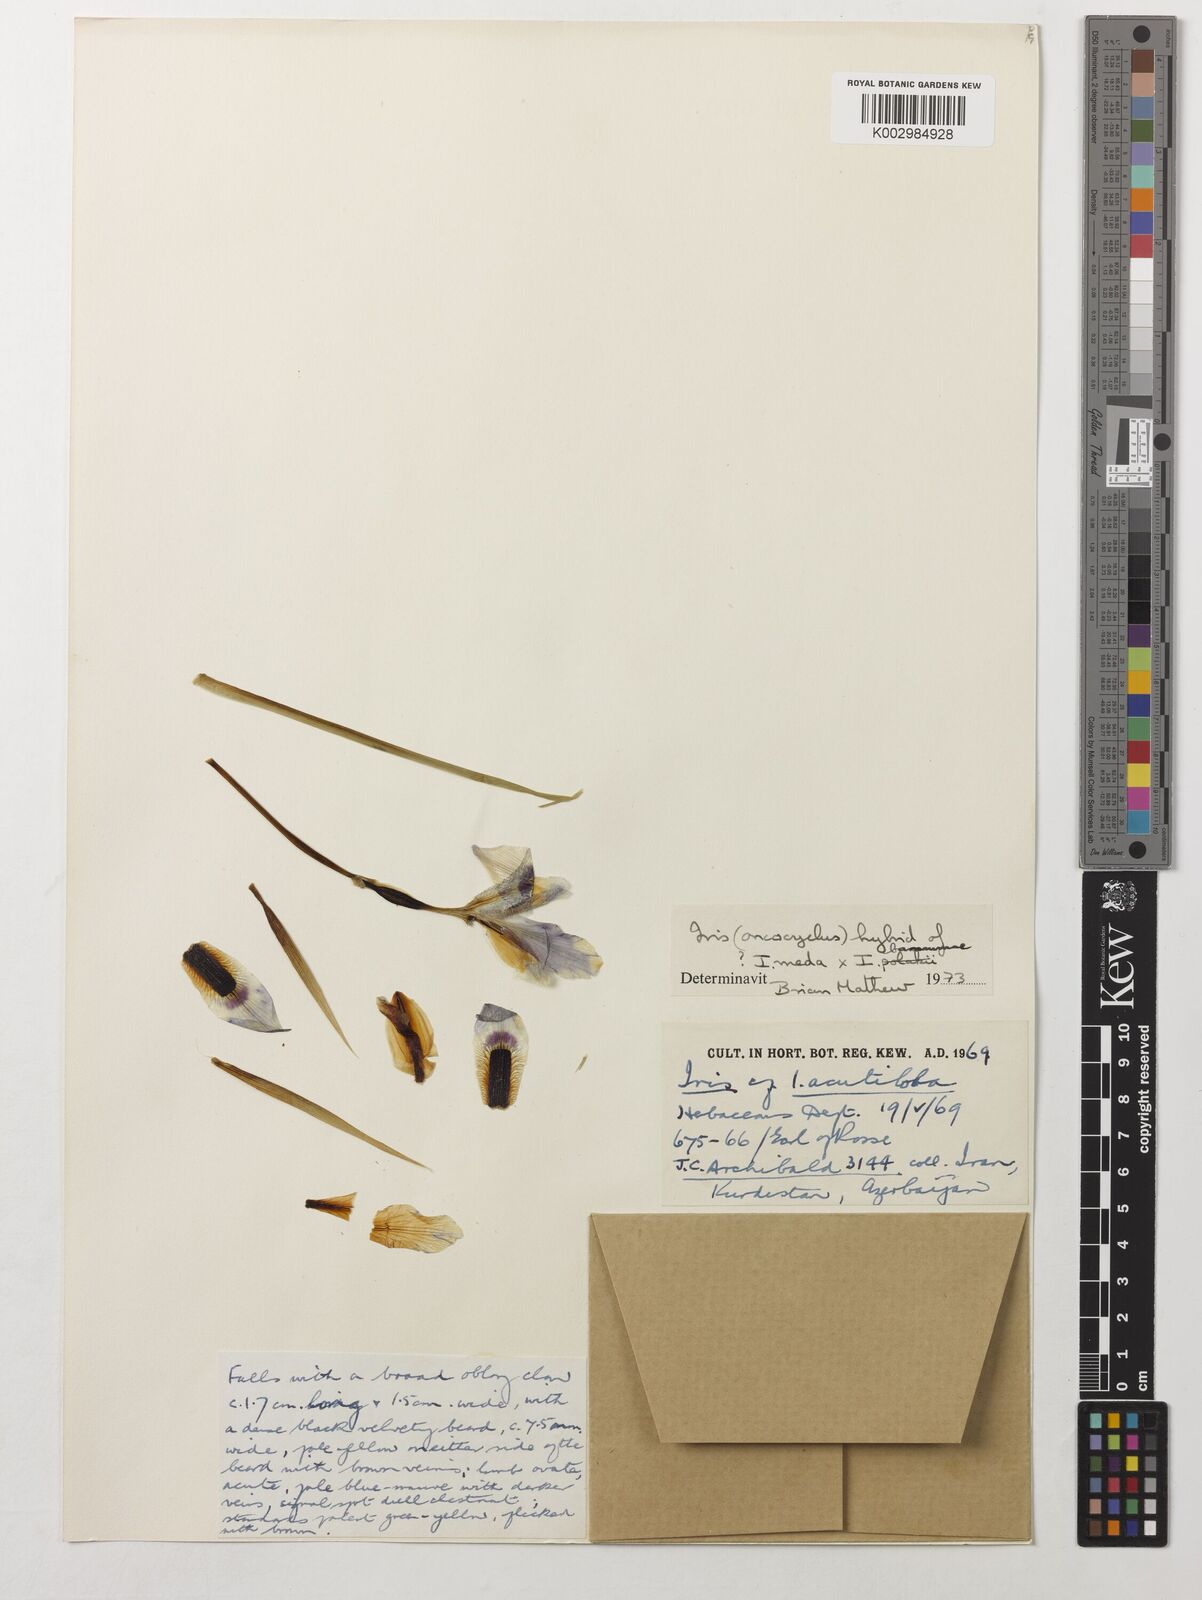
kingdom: Plantae
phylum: Tracheophyta
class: Liliopsida
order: Asparagales
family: Iridaceae
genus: Iris
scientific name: Iris meda
